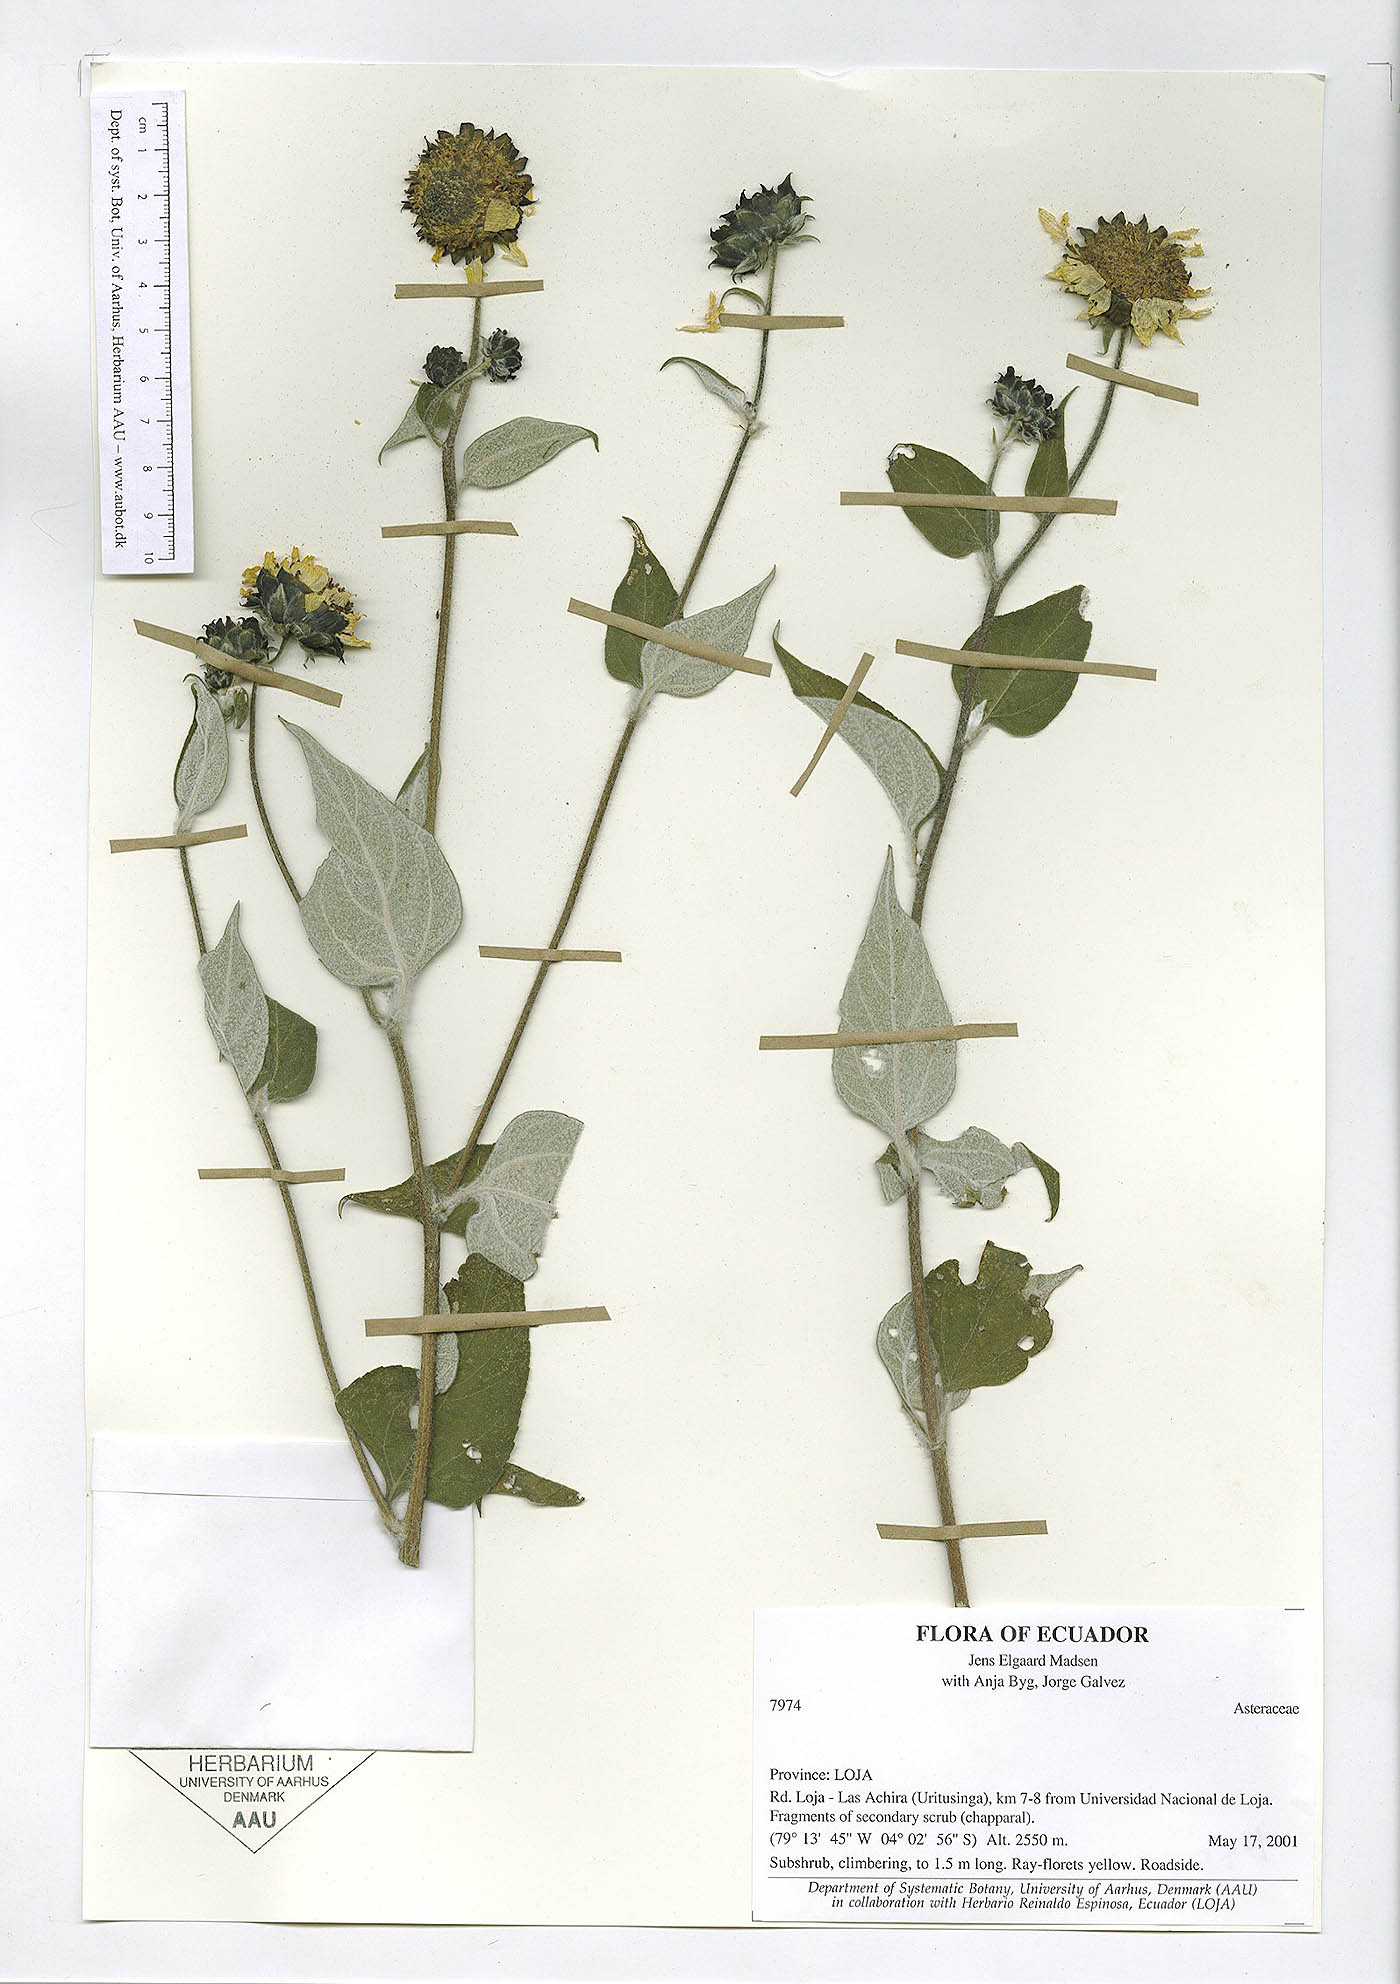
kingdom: Plantae
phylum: Tracheophyta
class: Magnoliopsida
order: Asterales
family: Asteraceae
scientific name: Asteraceae
